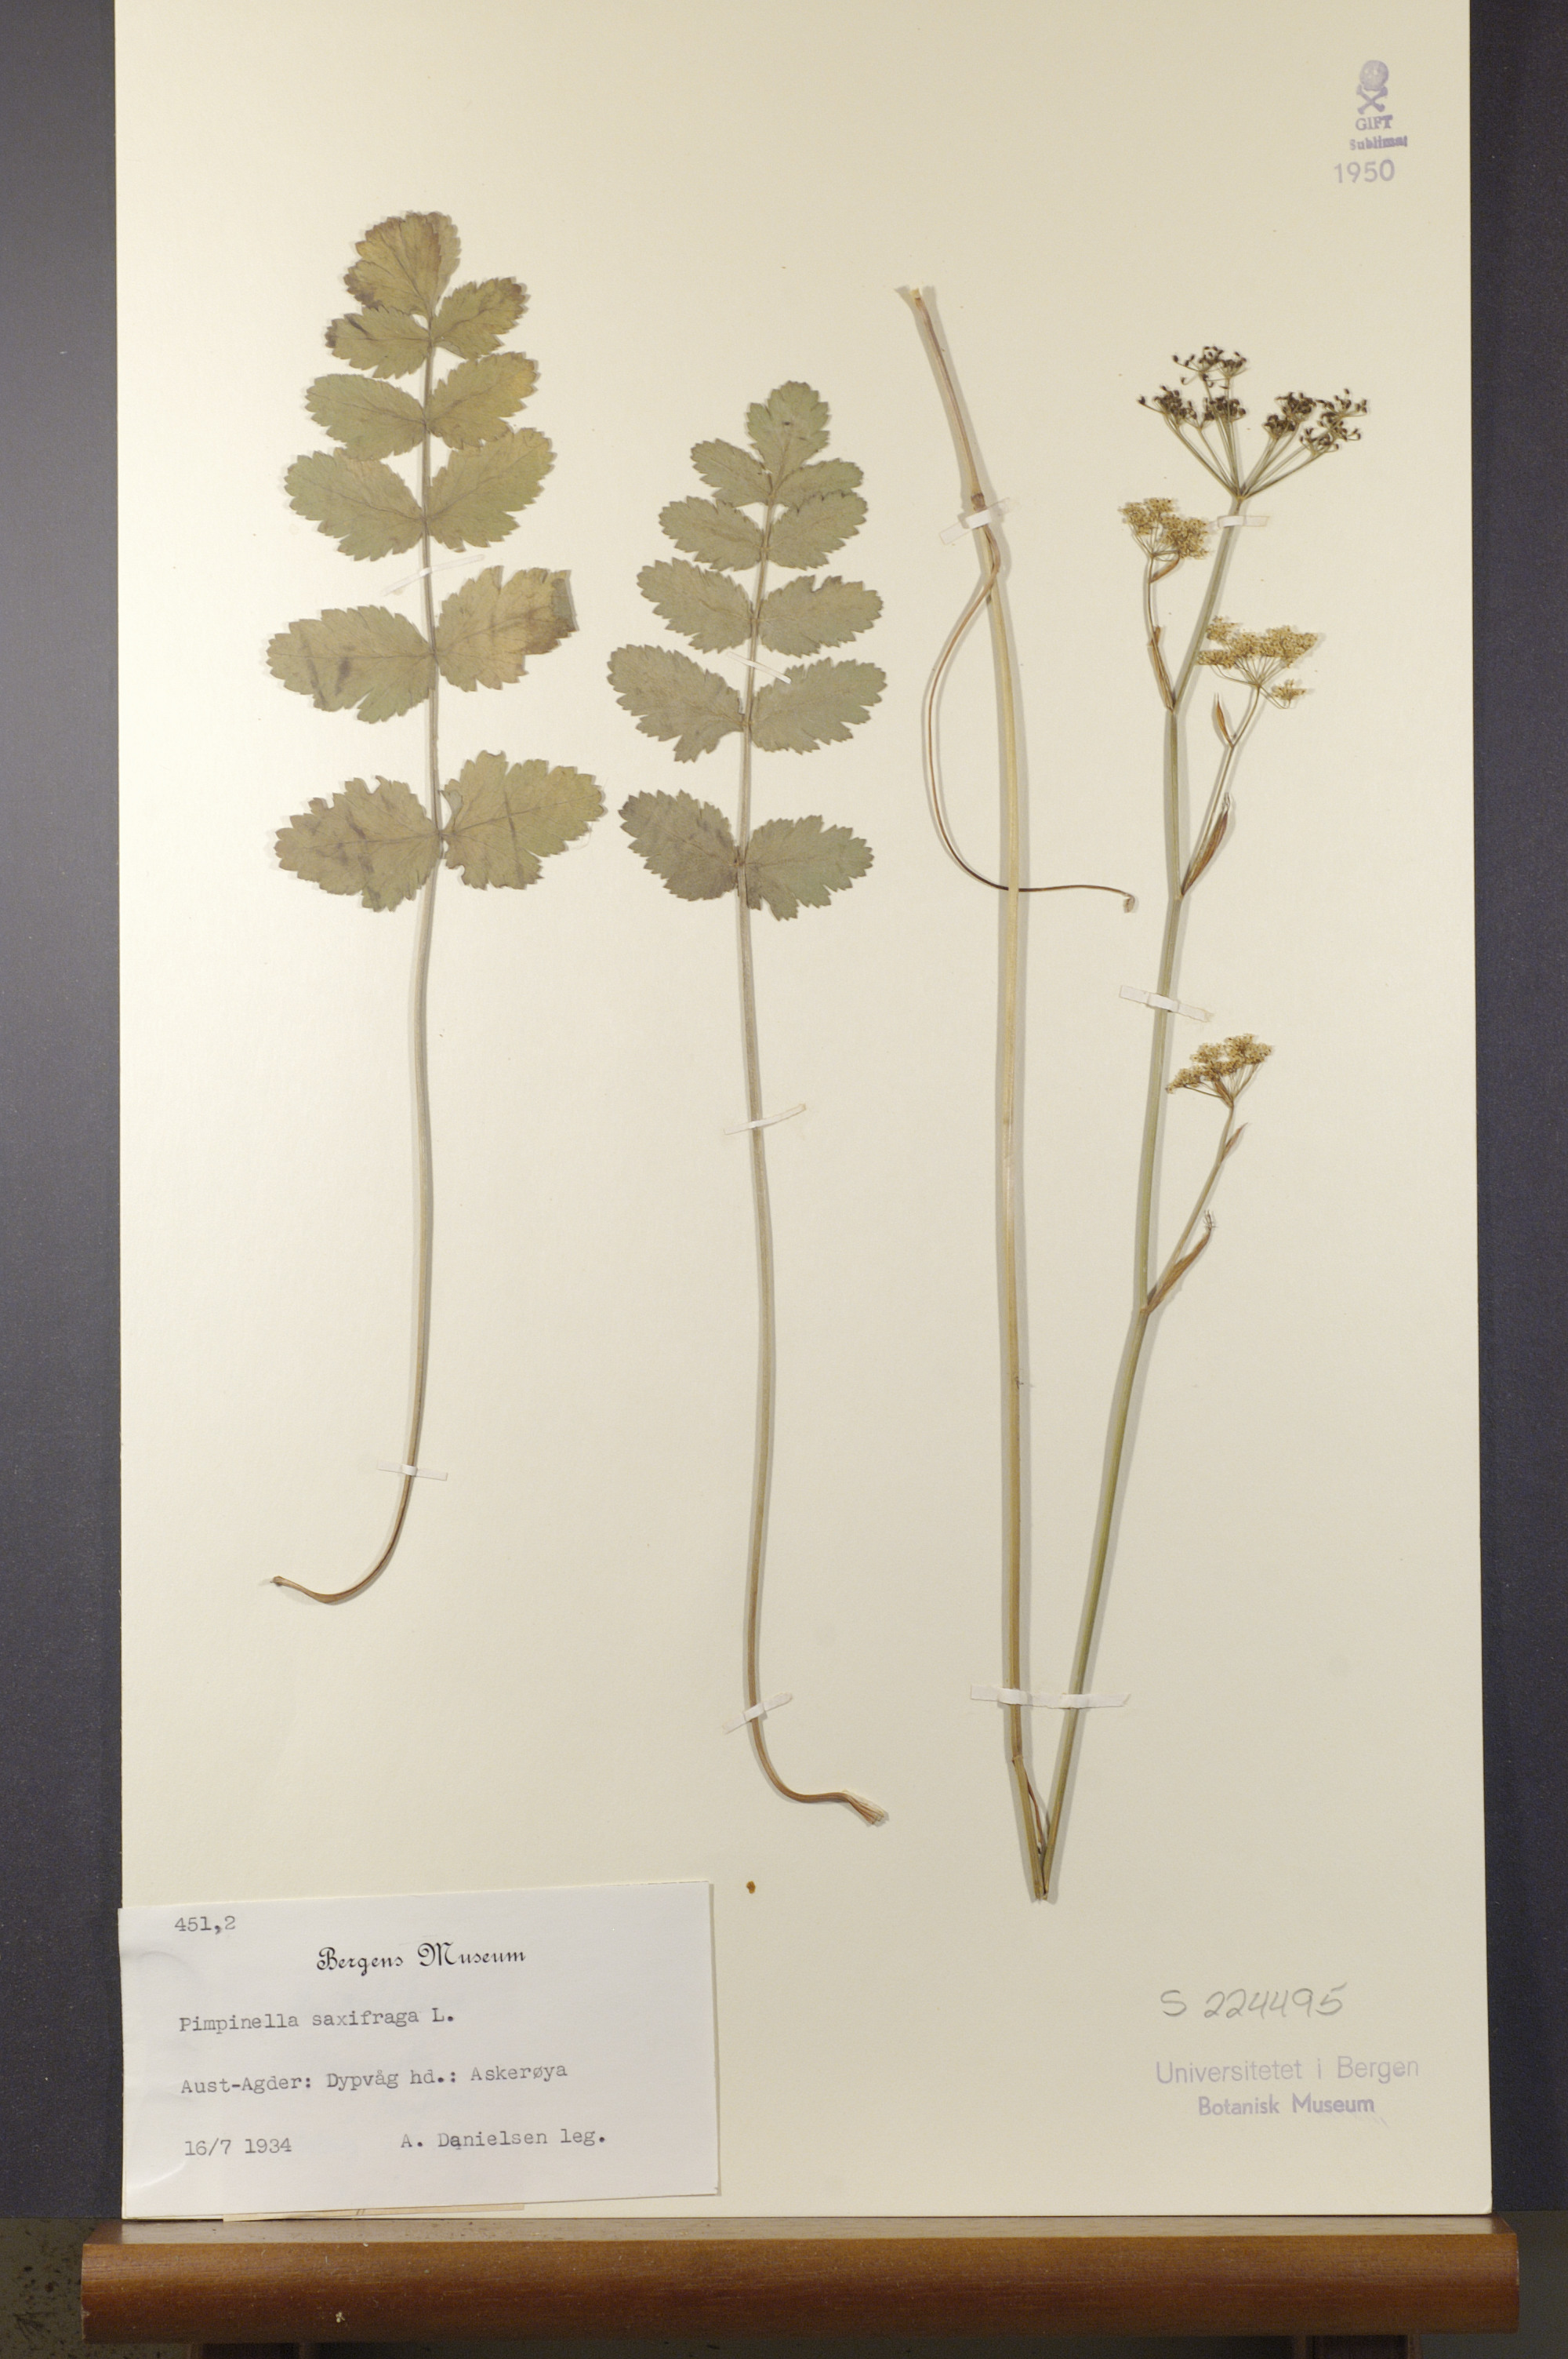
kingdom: Plantae
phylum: Tracheophyta
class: Magnoliopsida
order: Apiales
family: Apiaceae
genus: Pimpinella
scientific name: Pimpinella saxifraga
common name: Burnet-saxifrage
